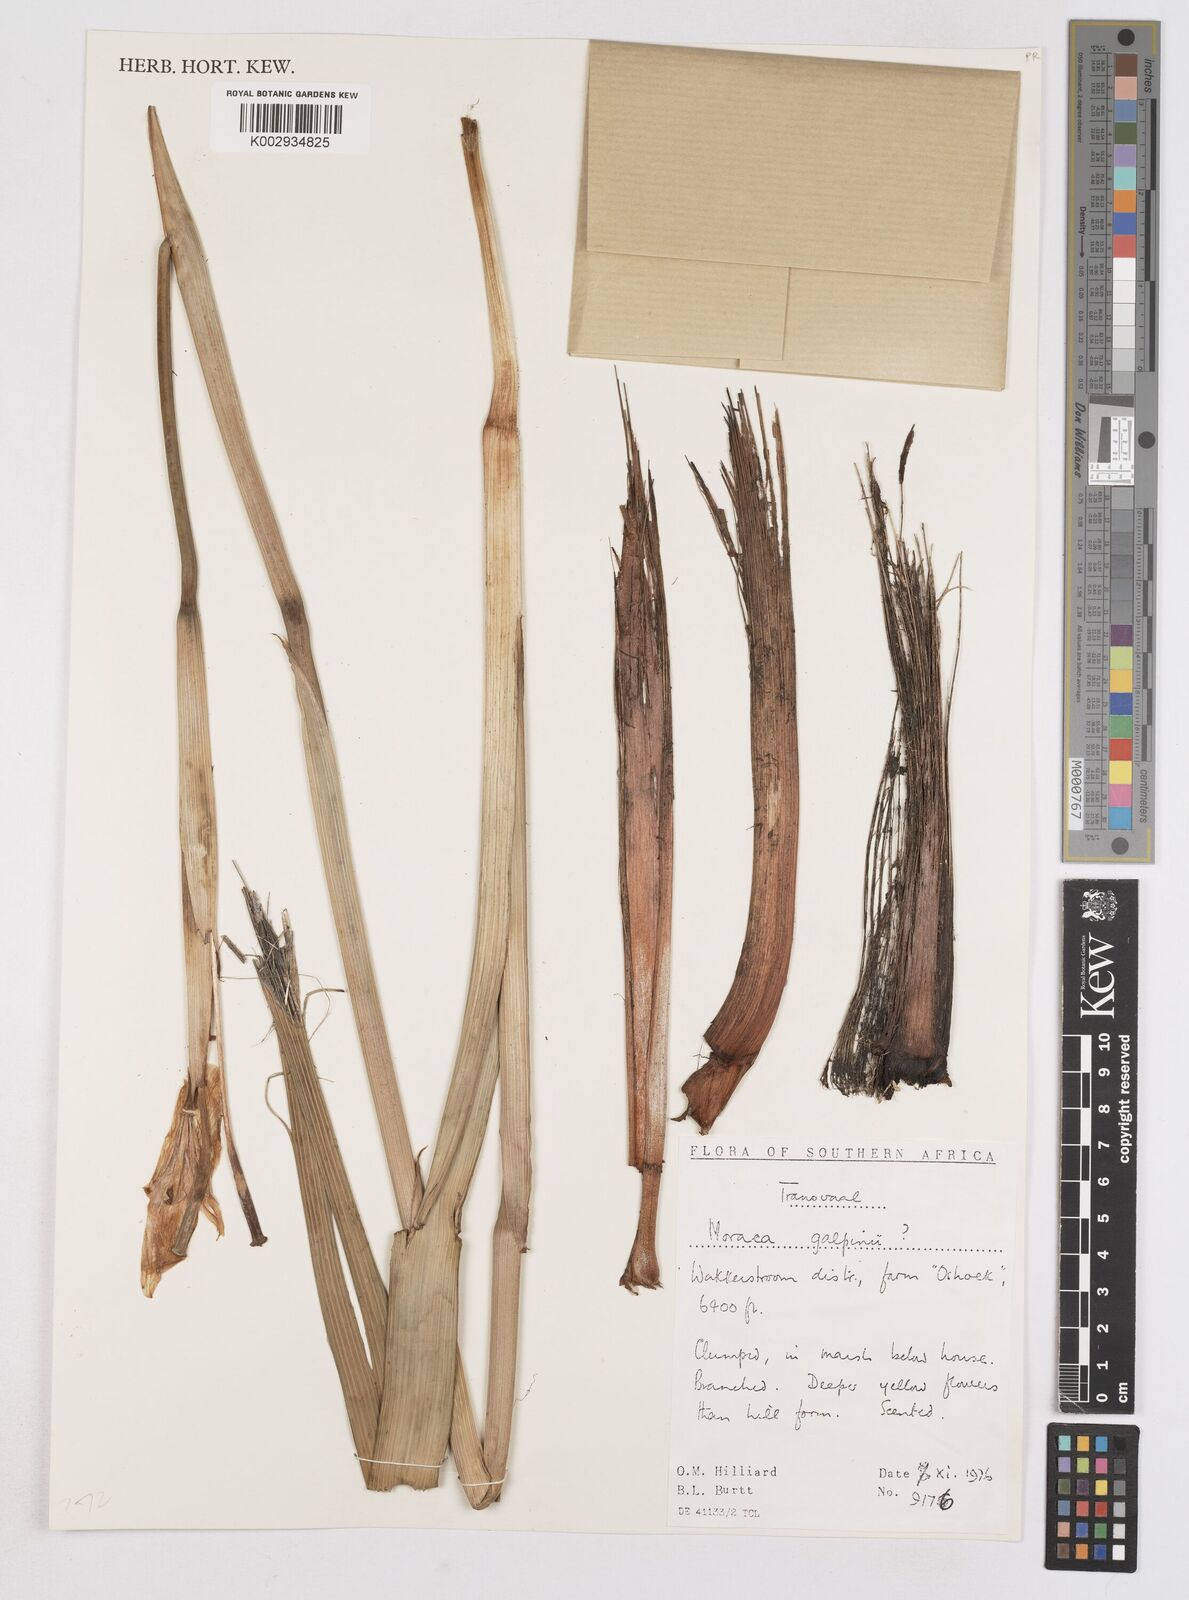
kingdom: Plantae
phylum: Tracheophyta
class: Liliopsida
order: Asparagales
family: Iridaceae
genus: Moraea
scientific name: Moraea robusta
